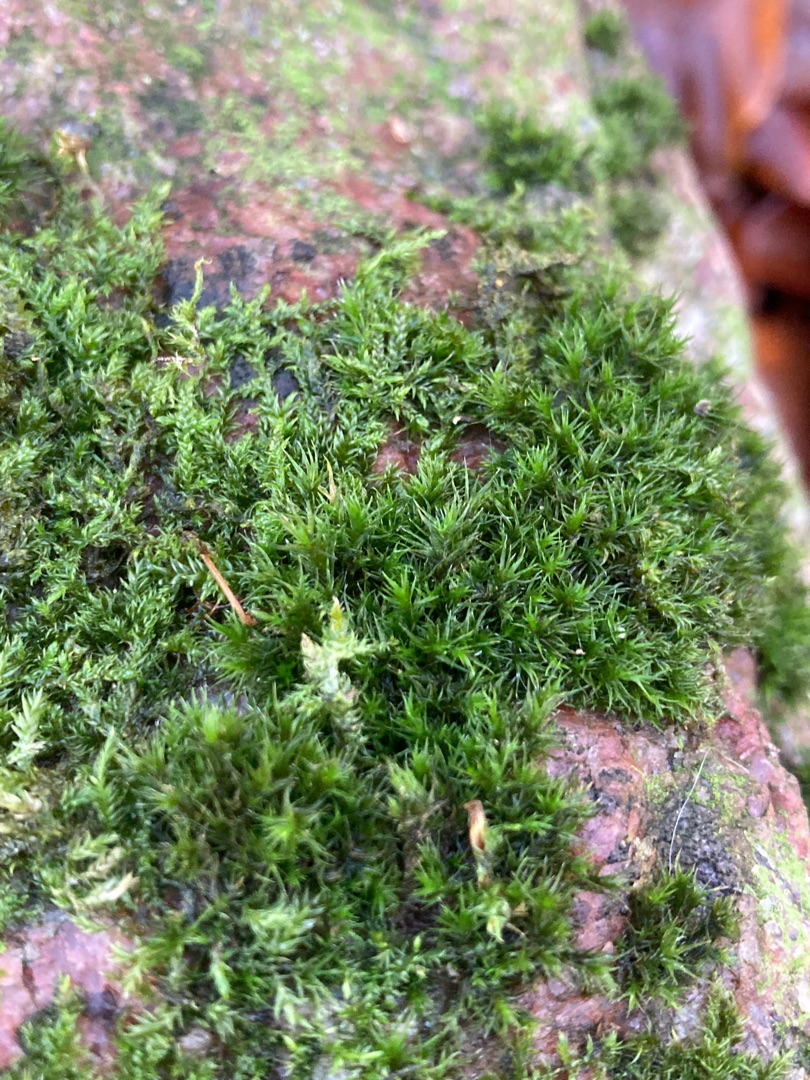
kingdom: Plantae
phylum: Bryophyta
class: Bryopsida
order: Grimmiales
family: Grimmiaceae
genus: Grimmia
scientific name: Grimmia hartmanii
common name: Hartmans gråmos
